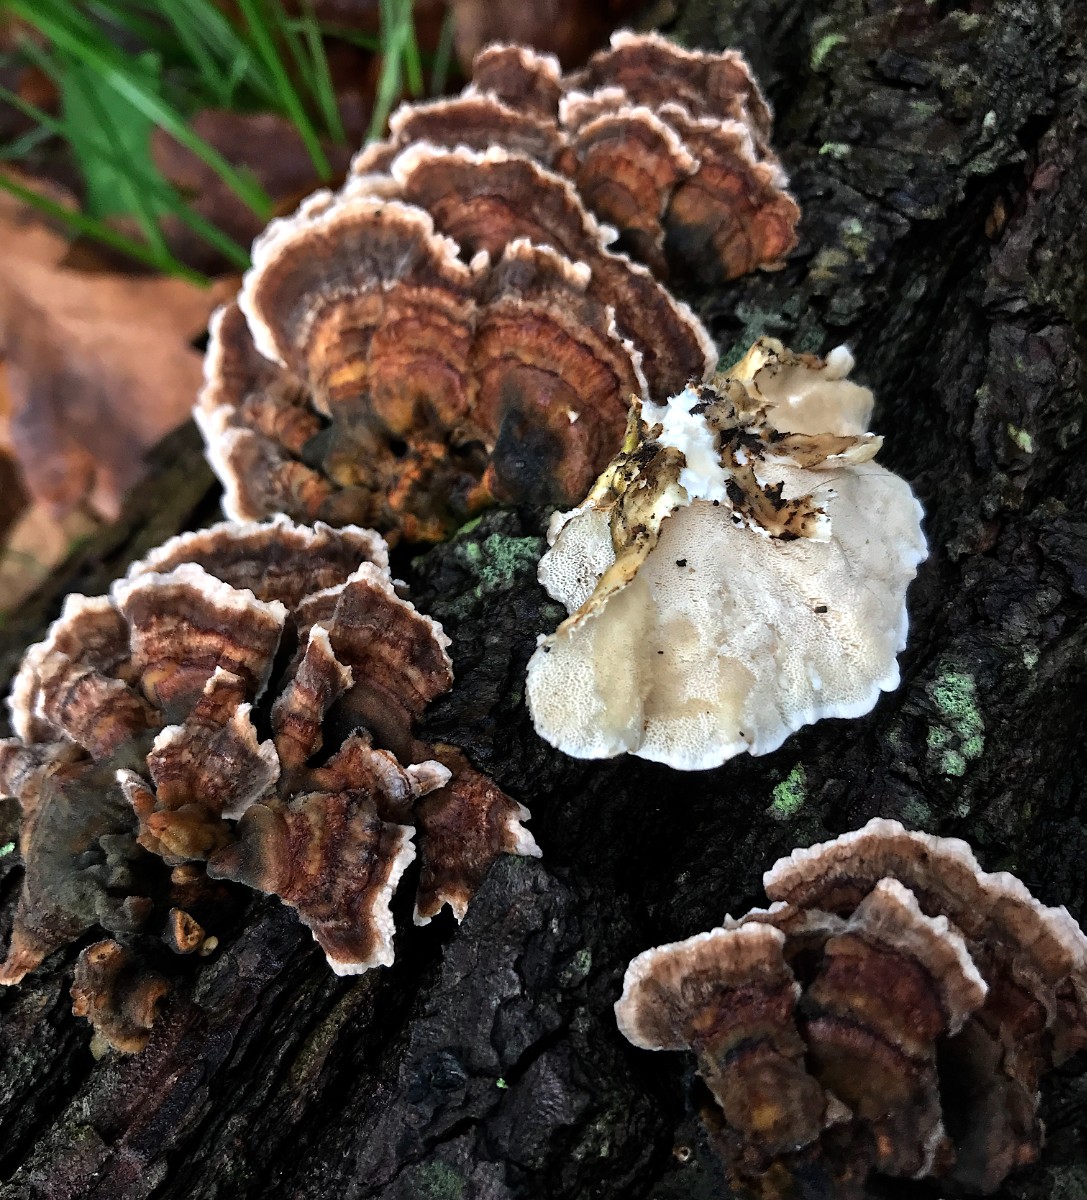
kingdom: Fungi
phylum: Basidiomycota
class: Agaricomycetes
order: Polyporales
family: Polyporaceae
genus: Trametes
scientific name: Trametes versicolor
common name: broget læderporesvamp
